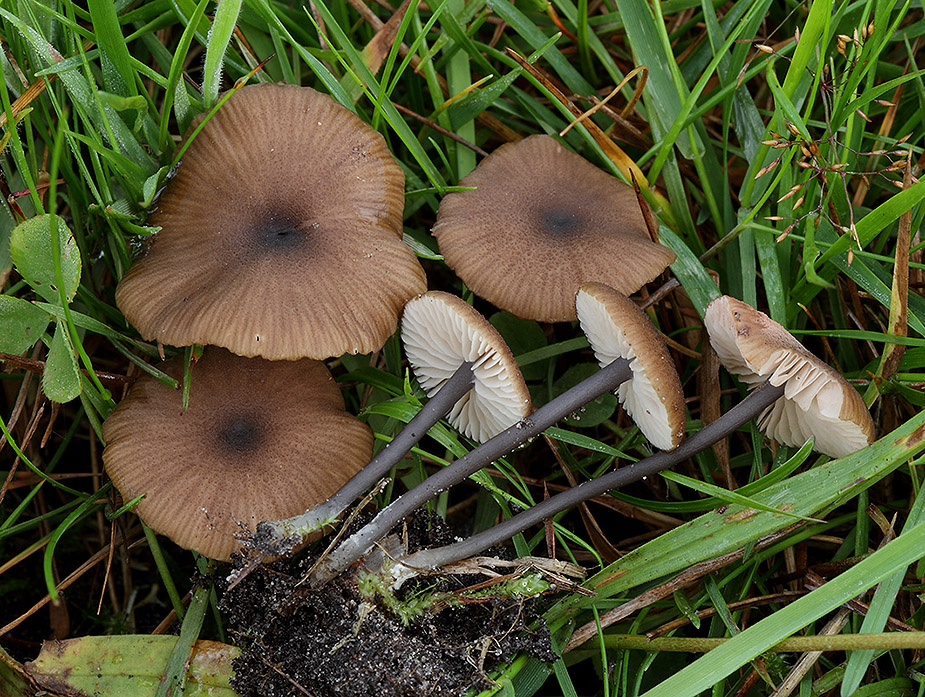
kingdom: Fungi
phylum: Basidiomycota
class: Agaricomycetes
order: Agaricales
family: Entolomataceae
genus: Entoloma
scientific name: Entoloma asprellum
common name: ru rødblad
